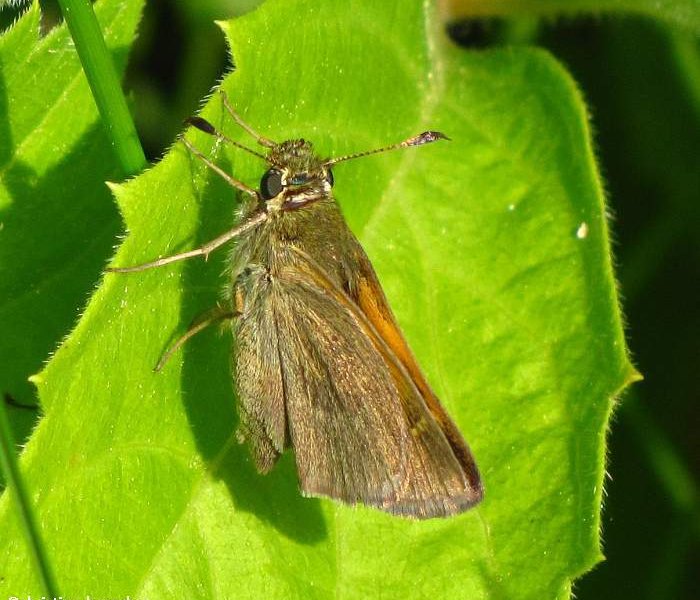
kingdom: Animalia
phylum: Arthropoda
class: Insecta
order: Lepidoptera
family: Hesperiidae
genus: Polites
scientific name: Polites themistocles
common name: Tawny-edged Skipper
